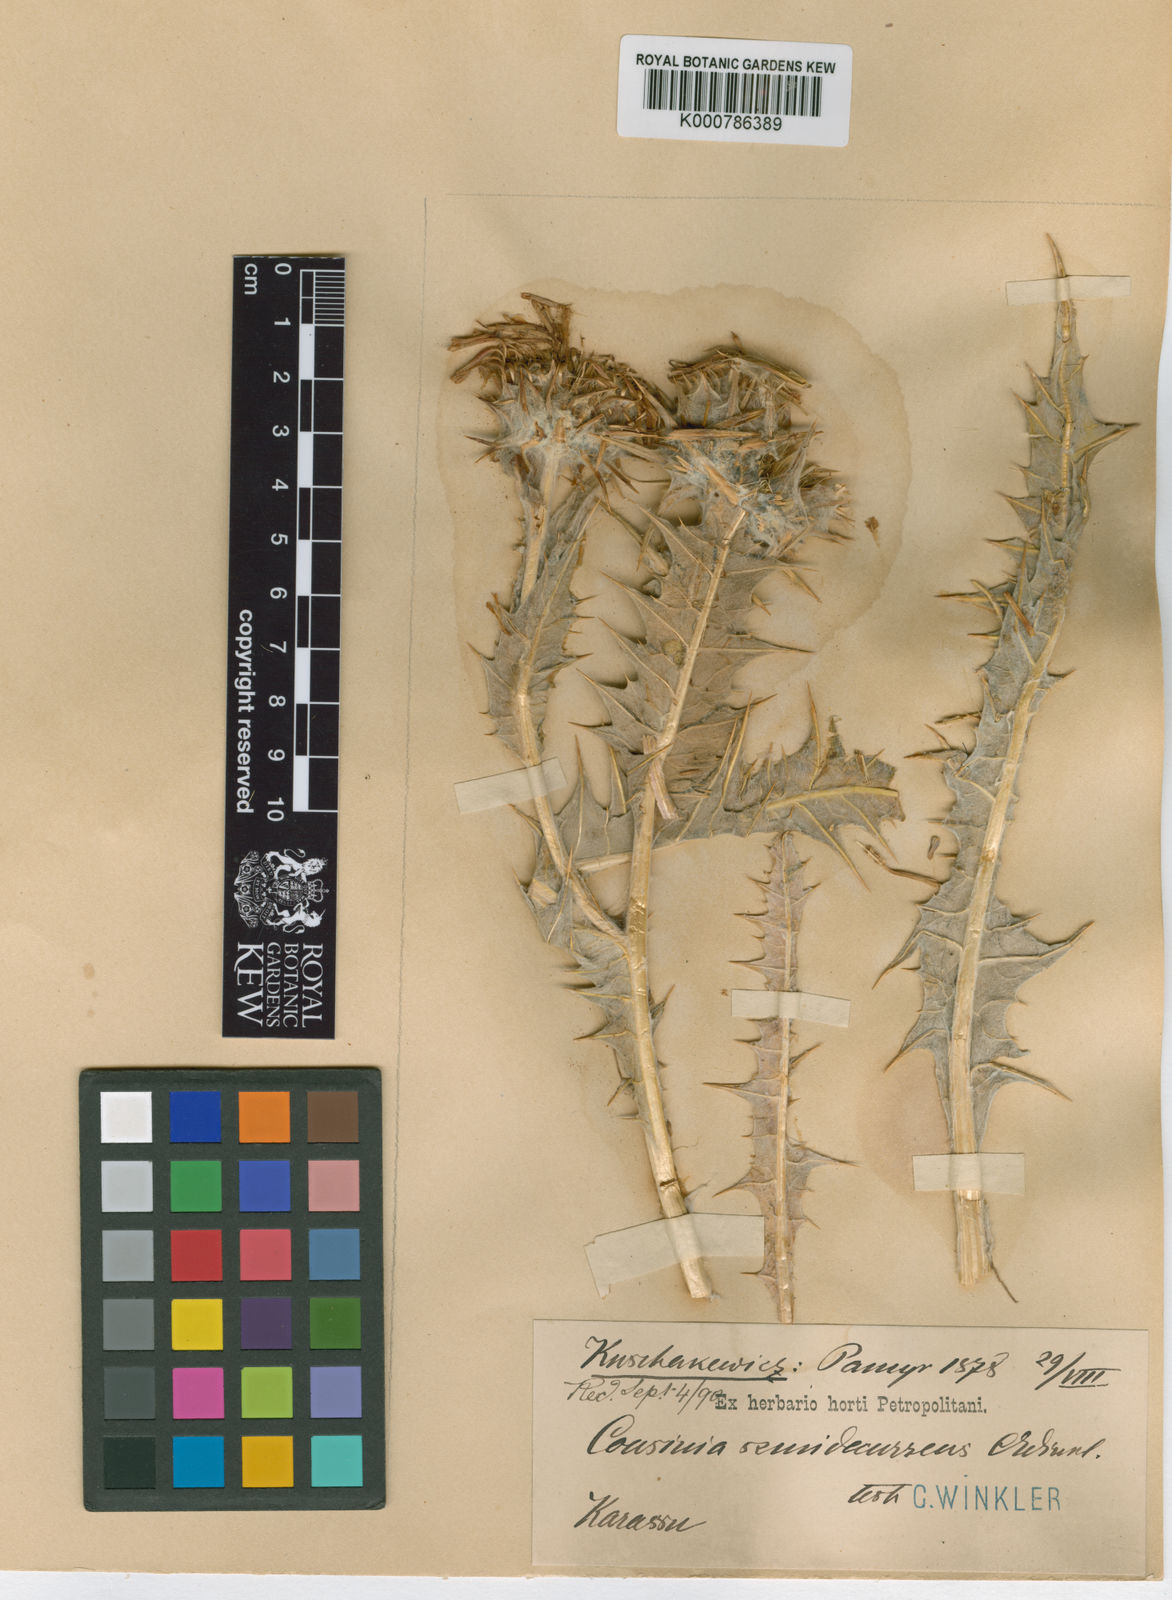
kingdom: Plantae
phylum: Tracheophyta
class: Magnoliopsida
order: Asterales
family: Asteraceae
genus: Cousinia
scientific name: Cousinia auriculata
